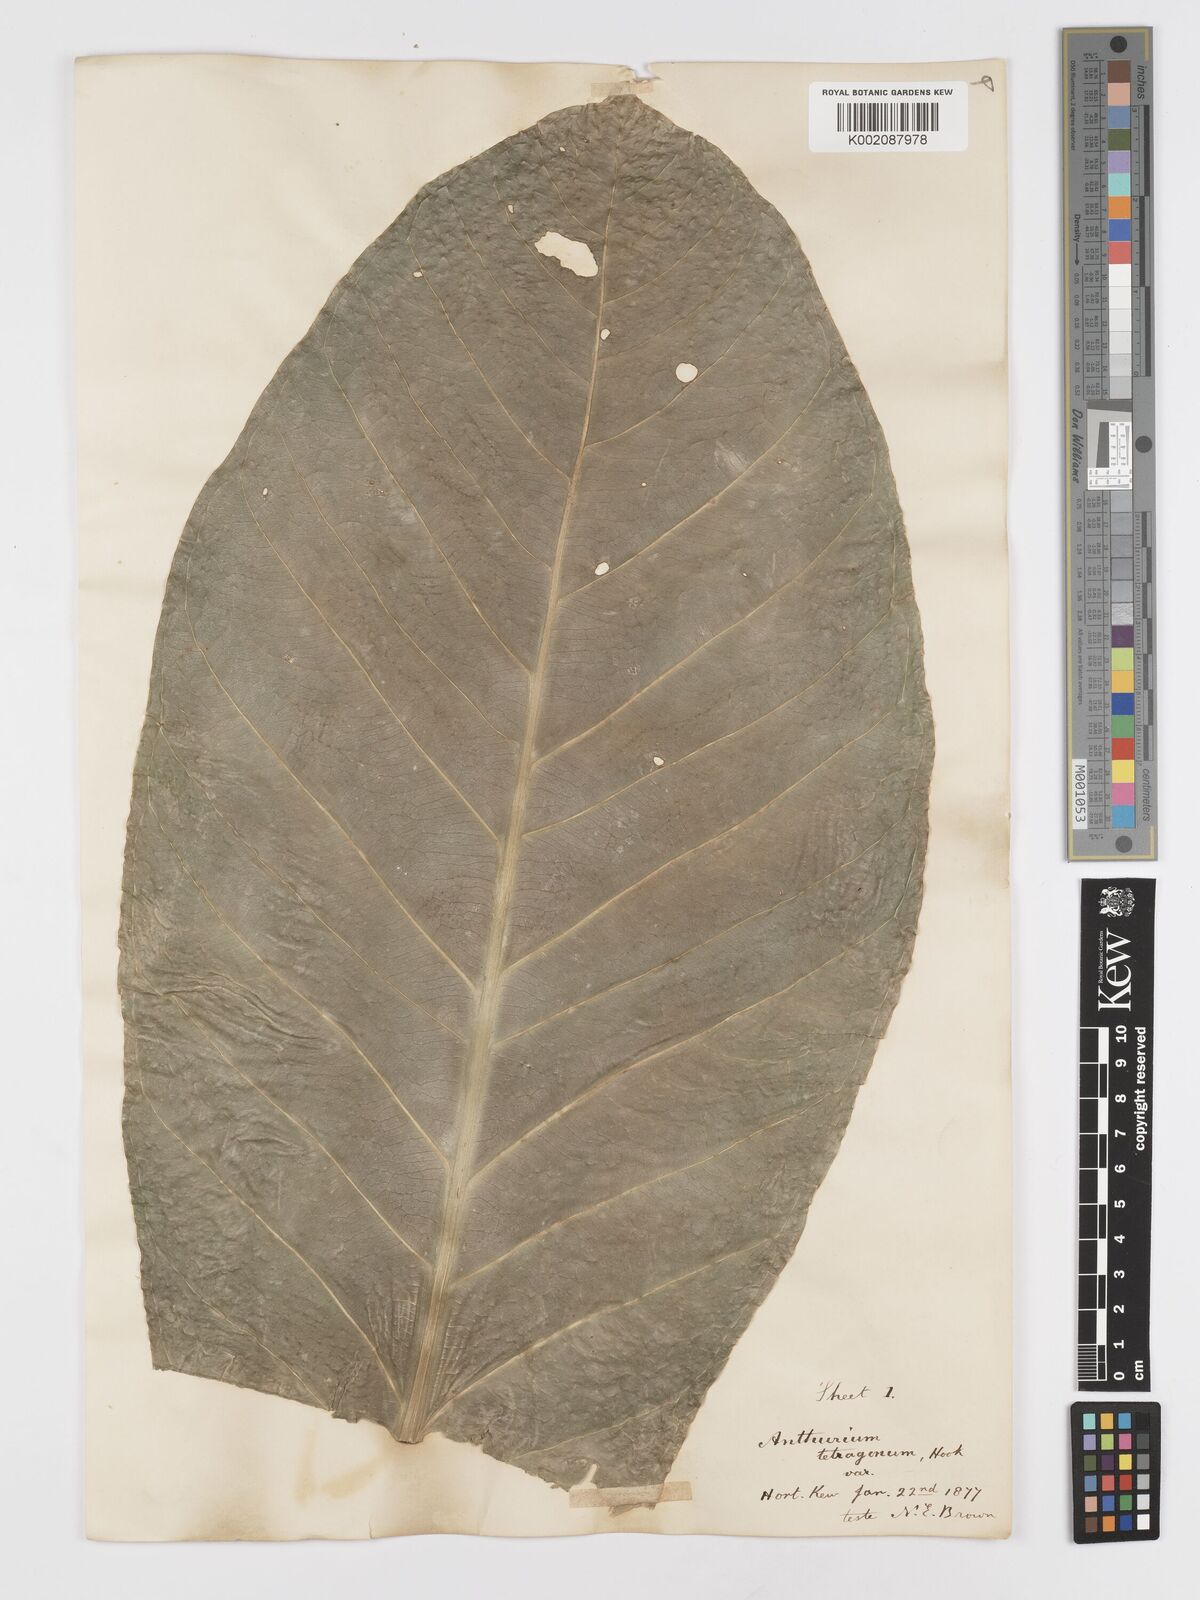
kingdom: Plantae
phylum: Tracheophyta
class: Liliopsida
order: Alismatales
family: Araceae
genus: Anthurium
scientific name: Anthurium schlechtendalii
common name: Laceleaf
